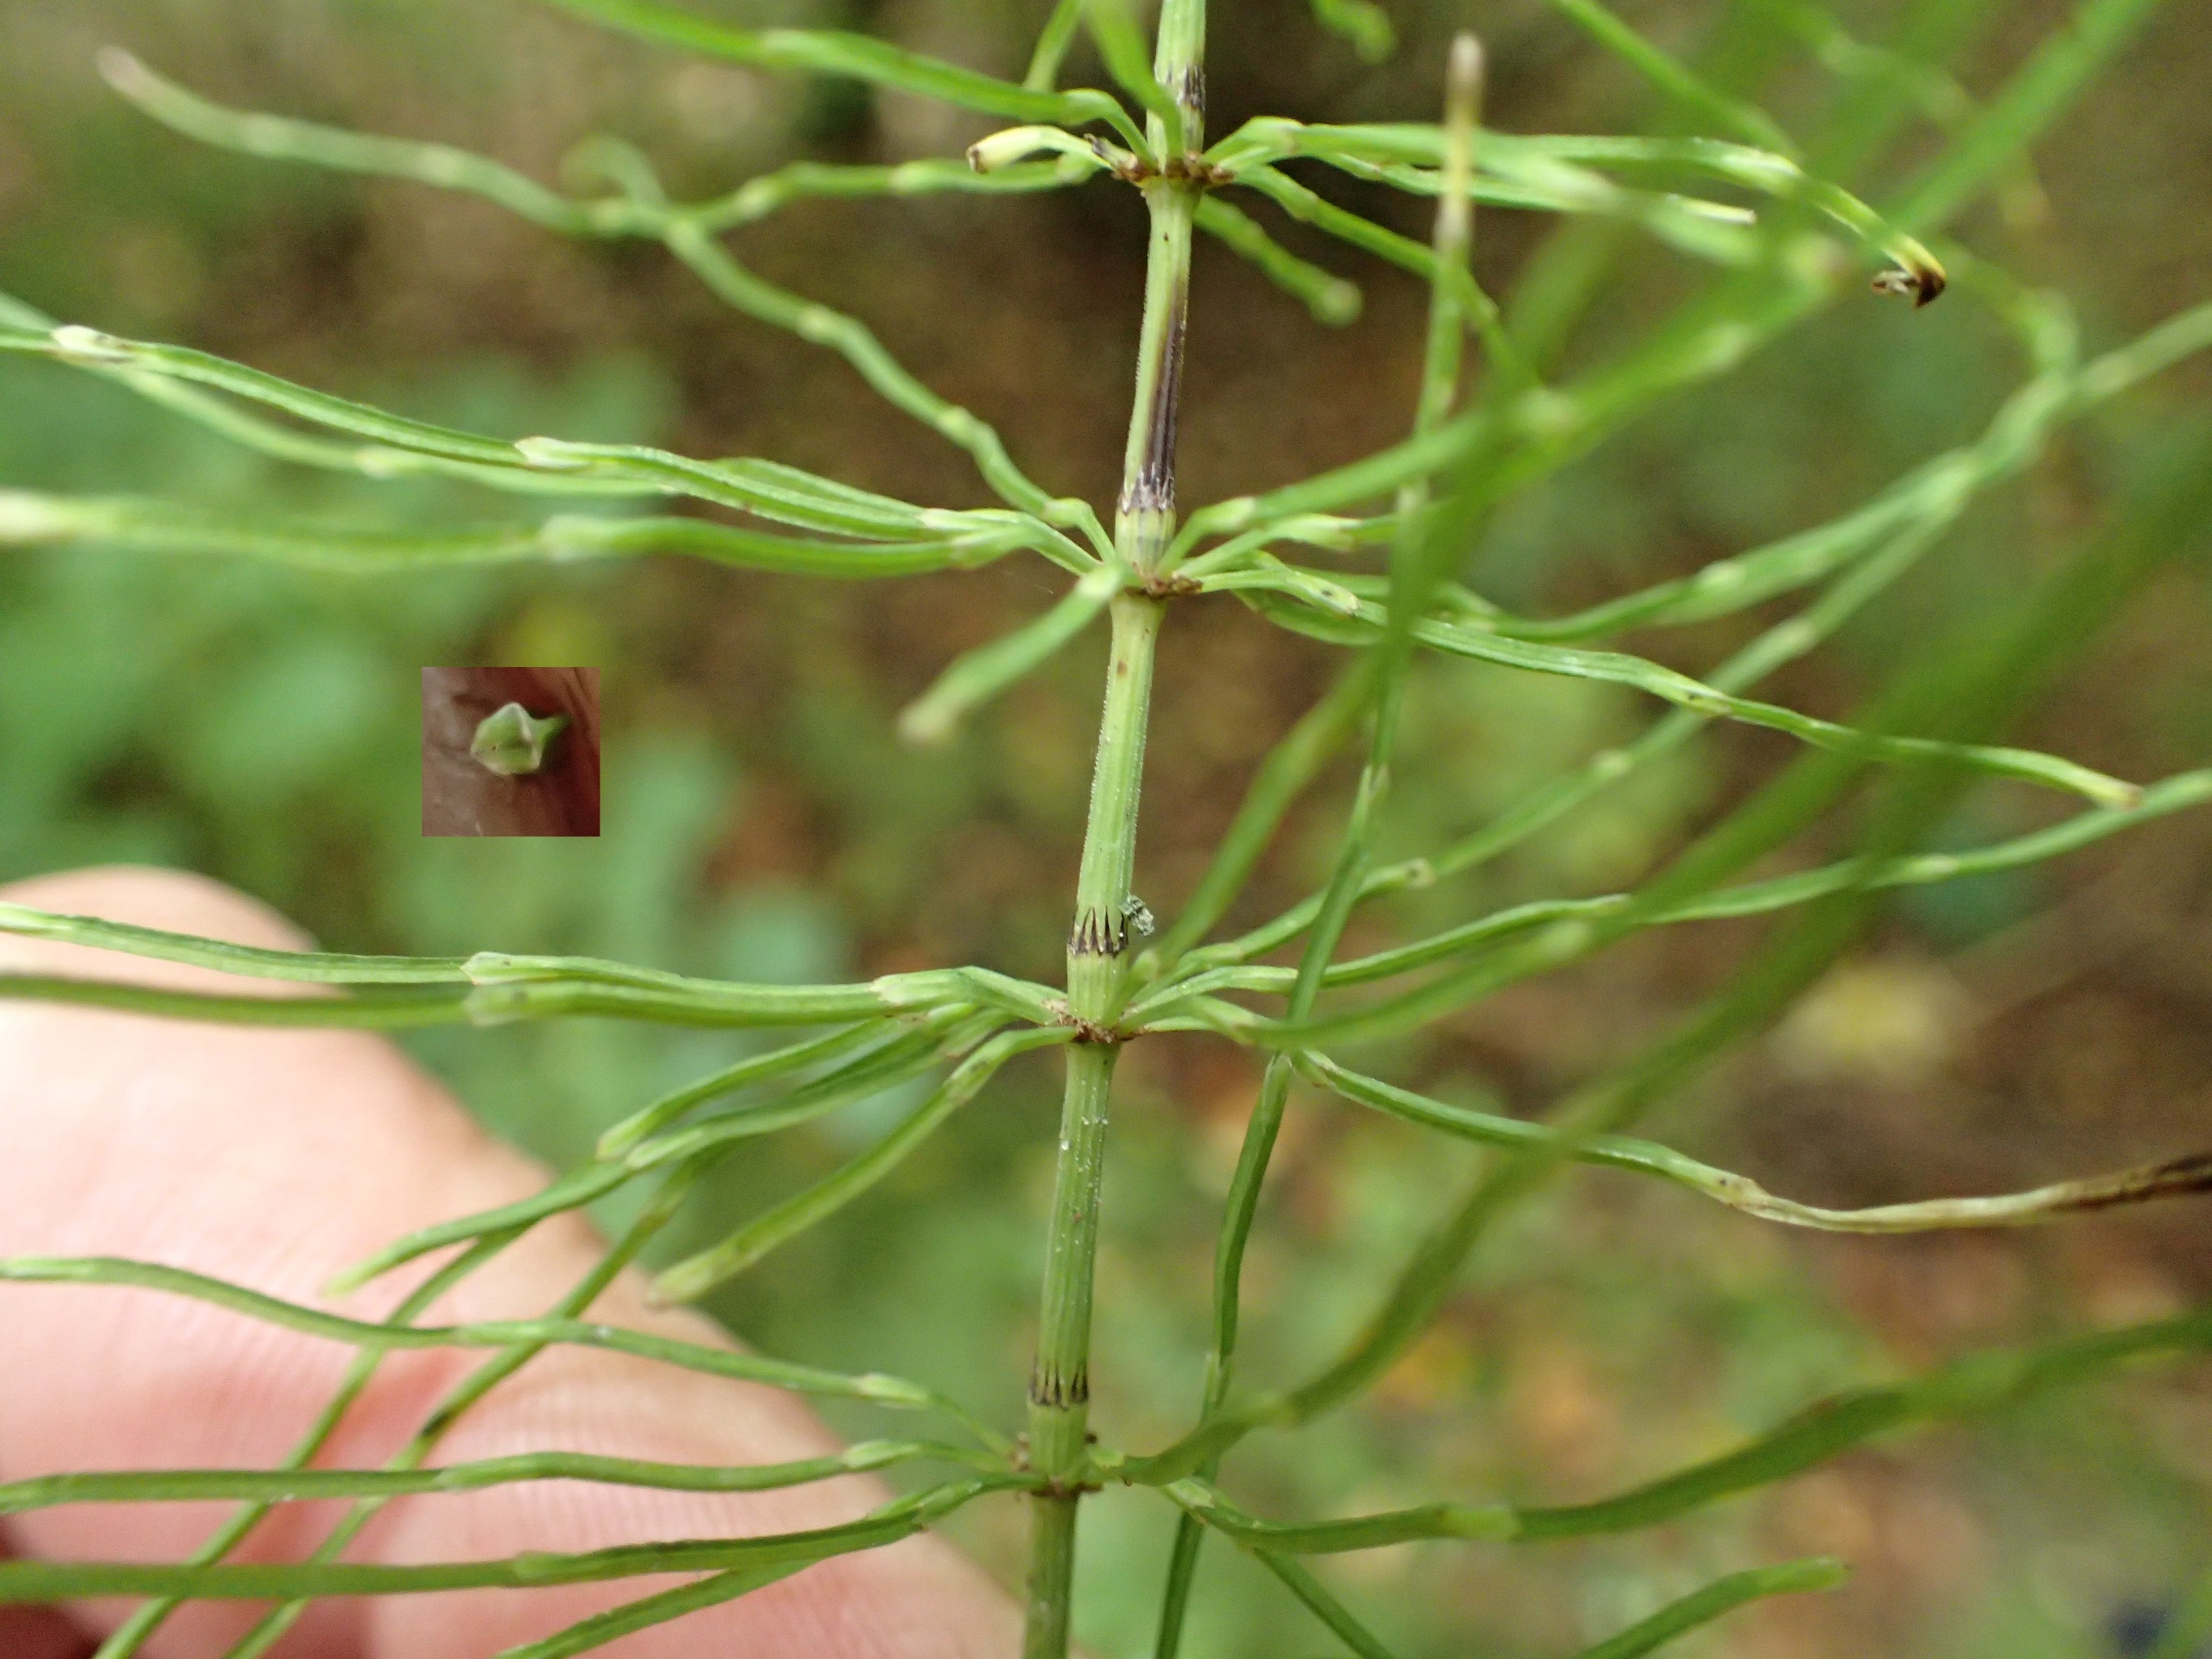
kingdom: Plantae
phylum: Tracheophyta
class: Polypodiopsida
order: Equisetales
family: Equisetaceae
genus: Equisetum
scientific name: Equisetum pratense
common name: Lund-padderok
